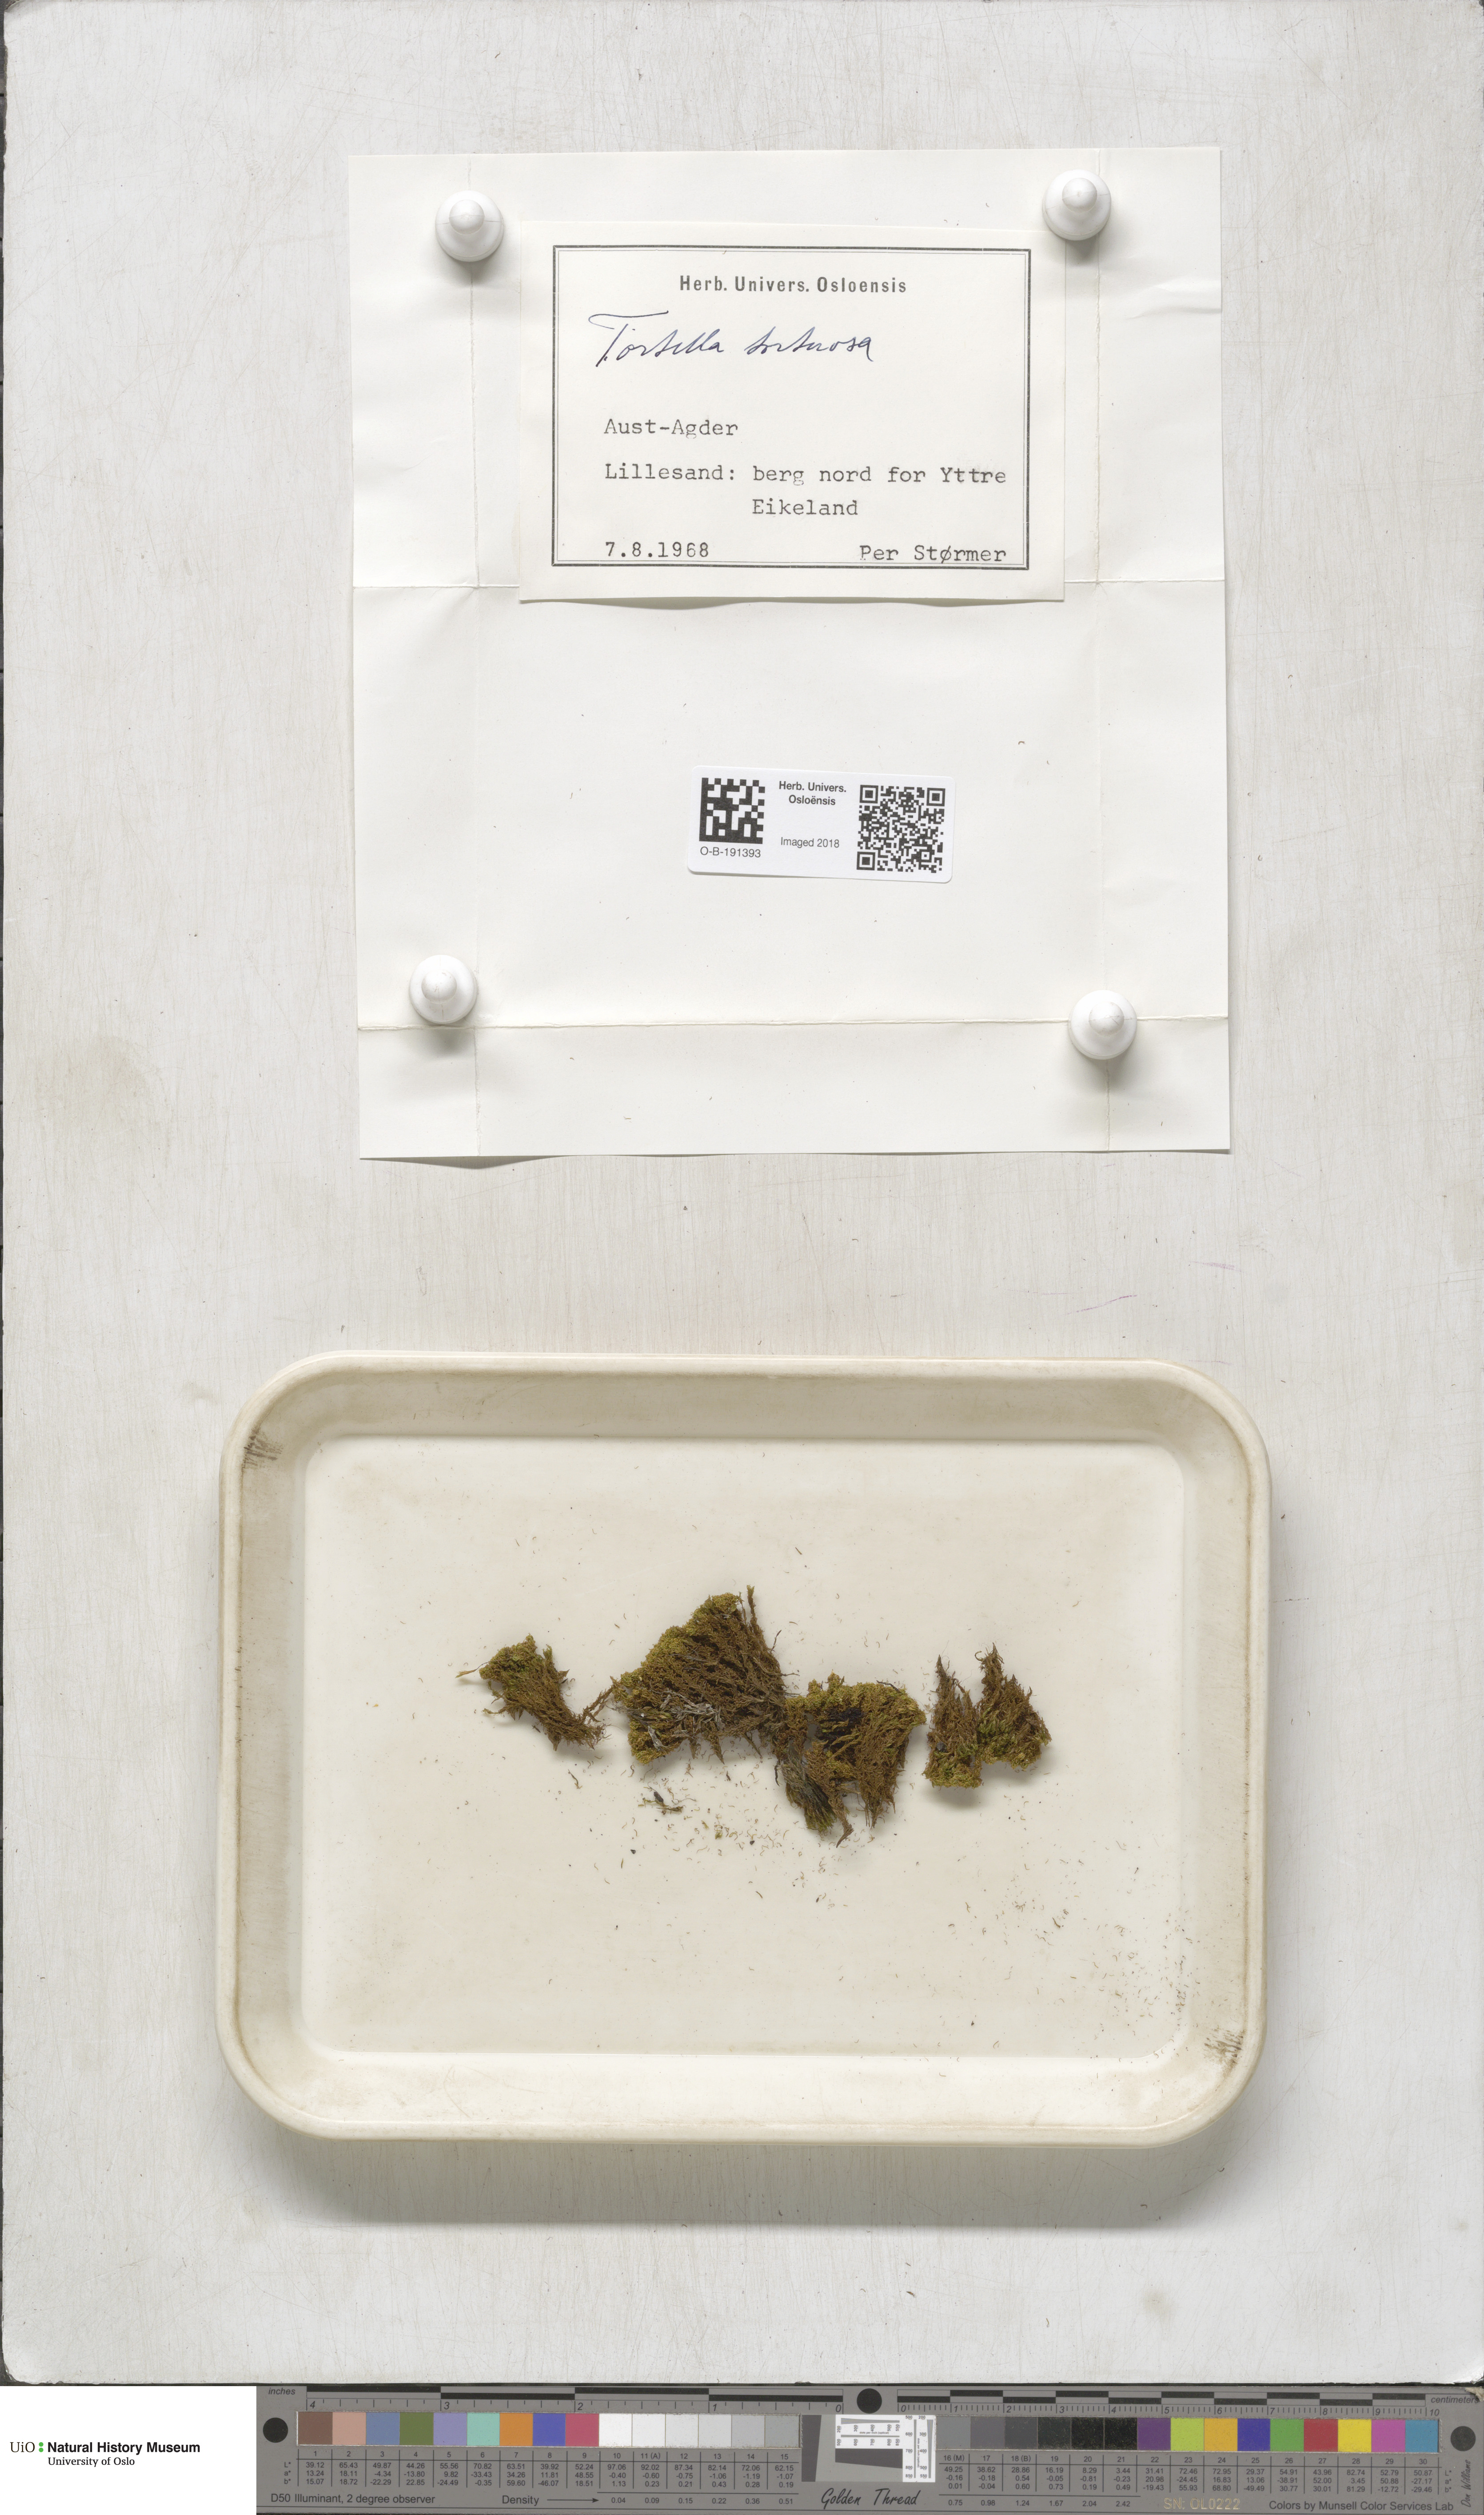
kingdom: Plantae
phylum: Bryophyta
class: Bryopsida
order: Pottiales
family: Pottiaceae
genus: Tortella
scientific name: Tortella tortuosa
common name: Frizzled crisp moss
